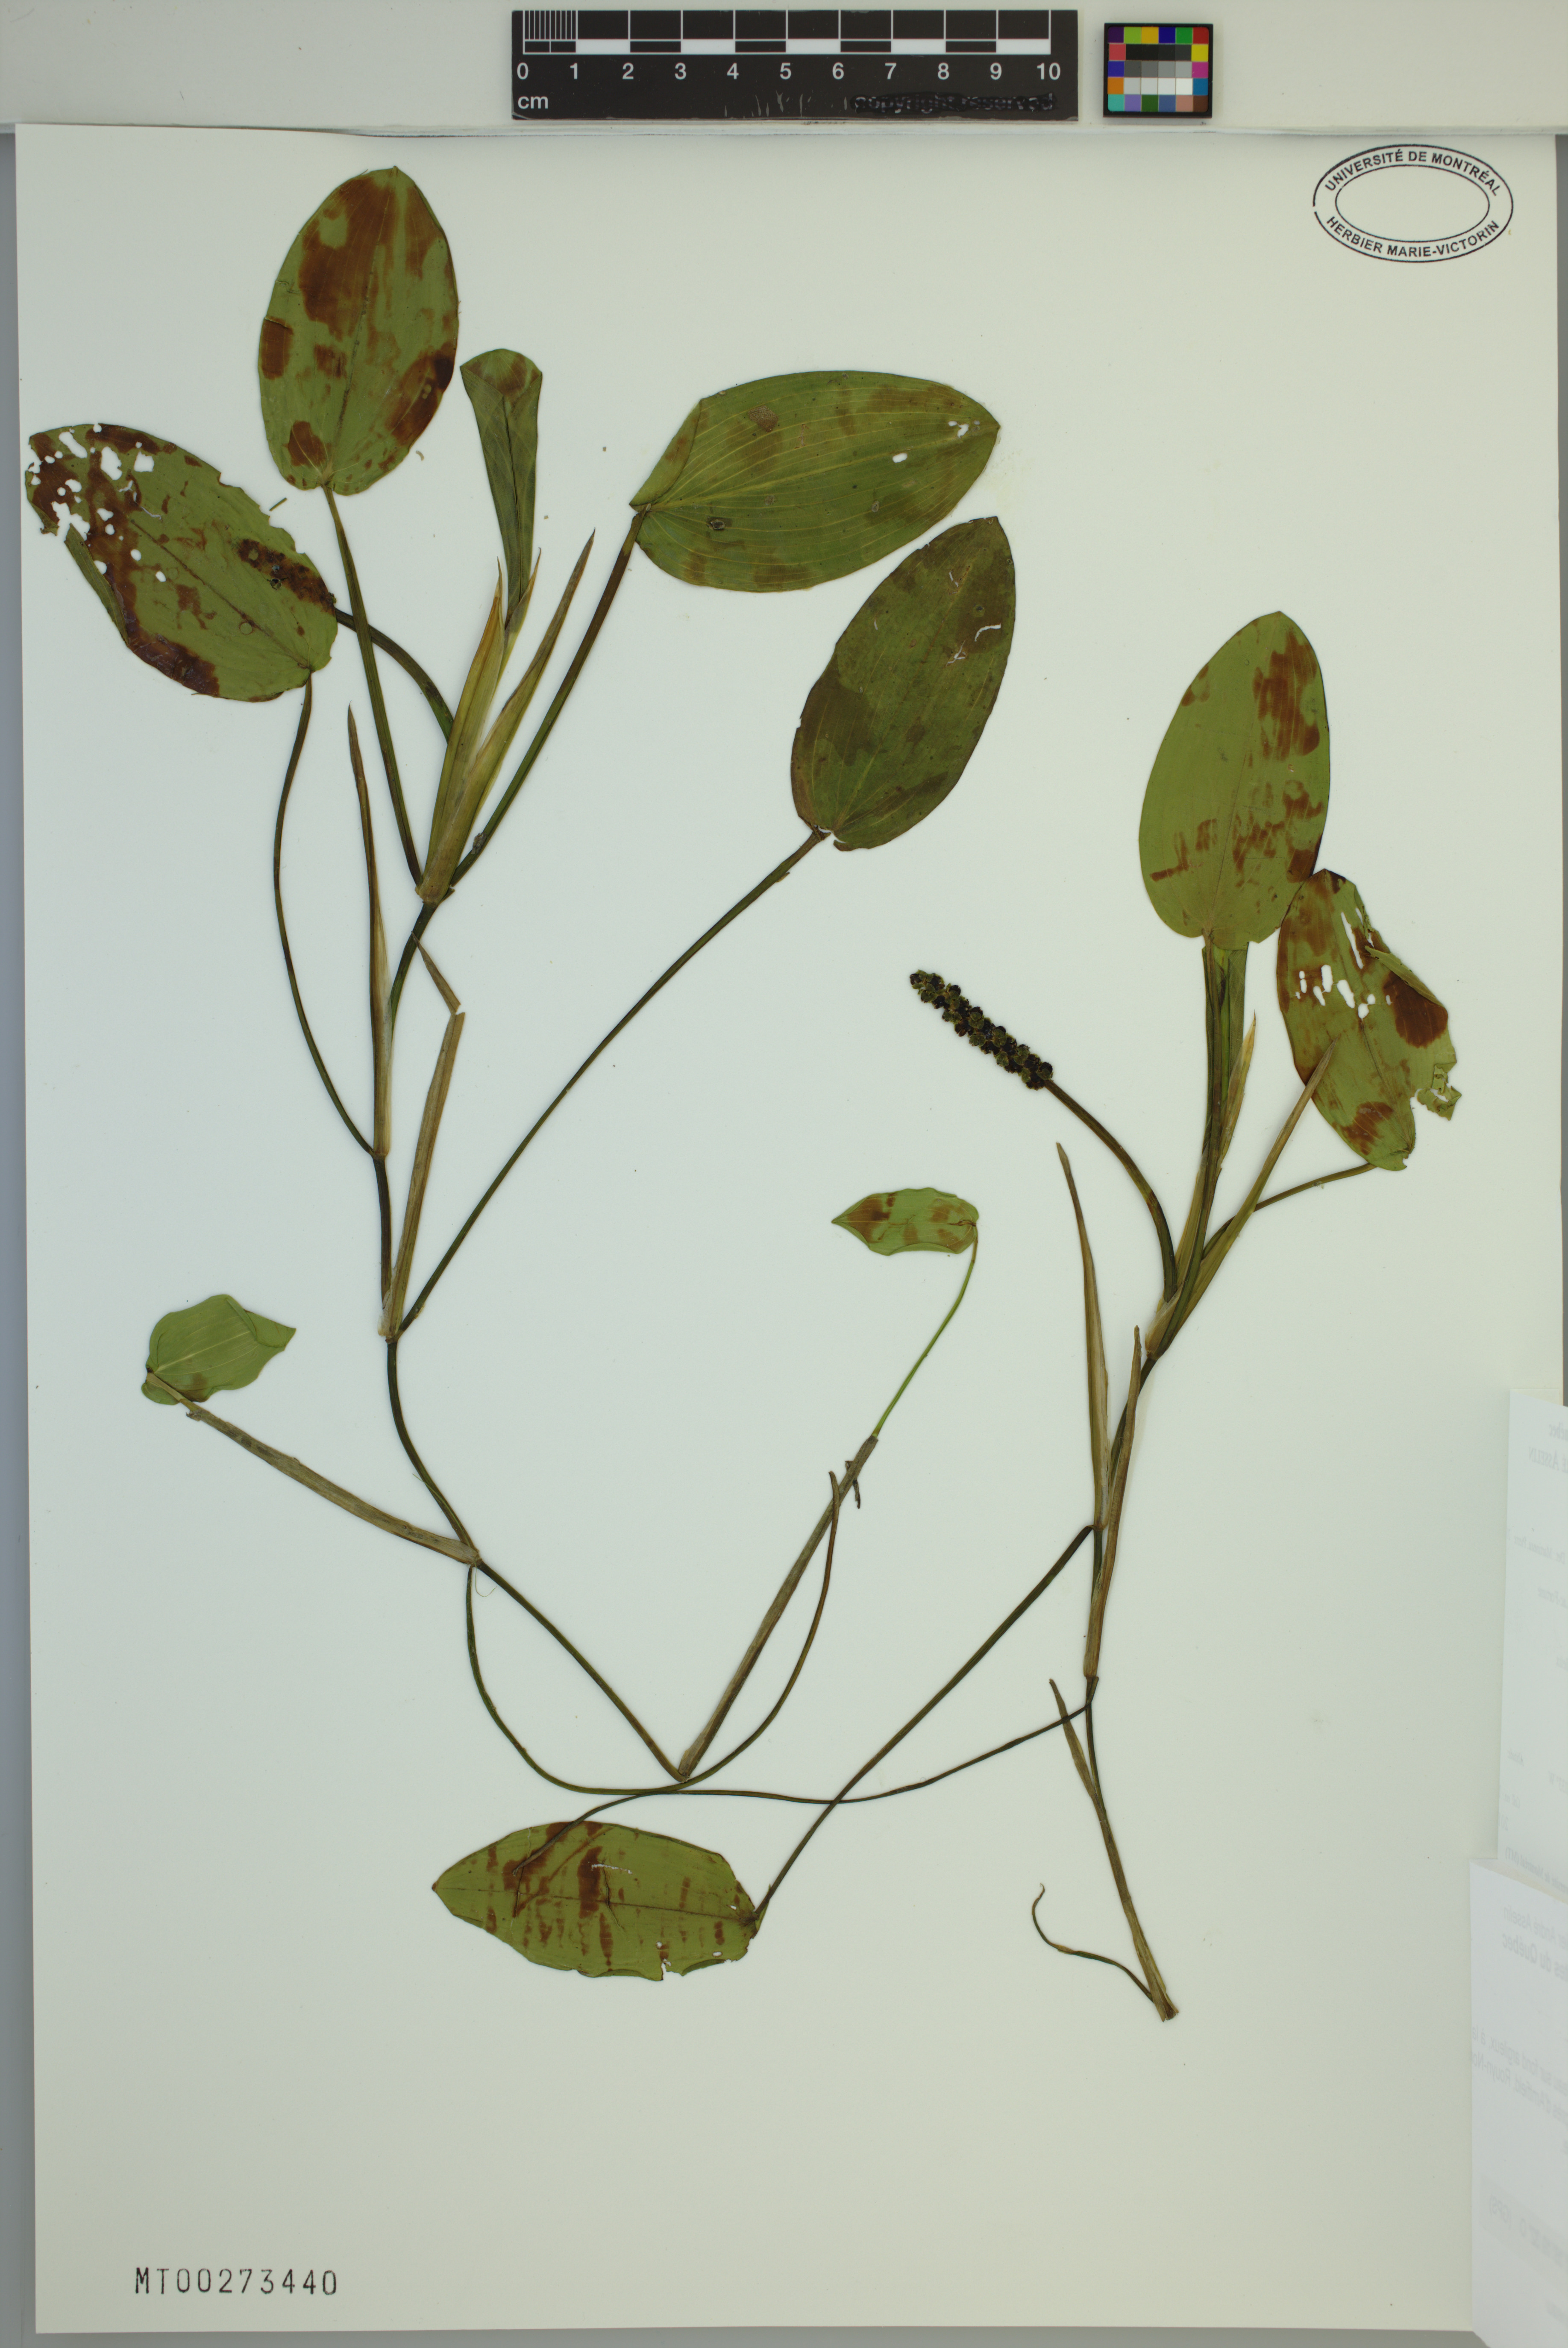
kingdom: Plantae
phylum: Tracheophyta
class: Liliopsida
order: Alismatales
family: Potamogetonaceae
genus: Potamogeton
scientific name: Potamogeton natans
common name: Broad-leaved pondweed
